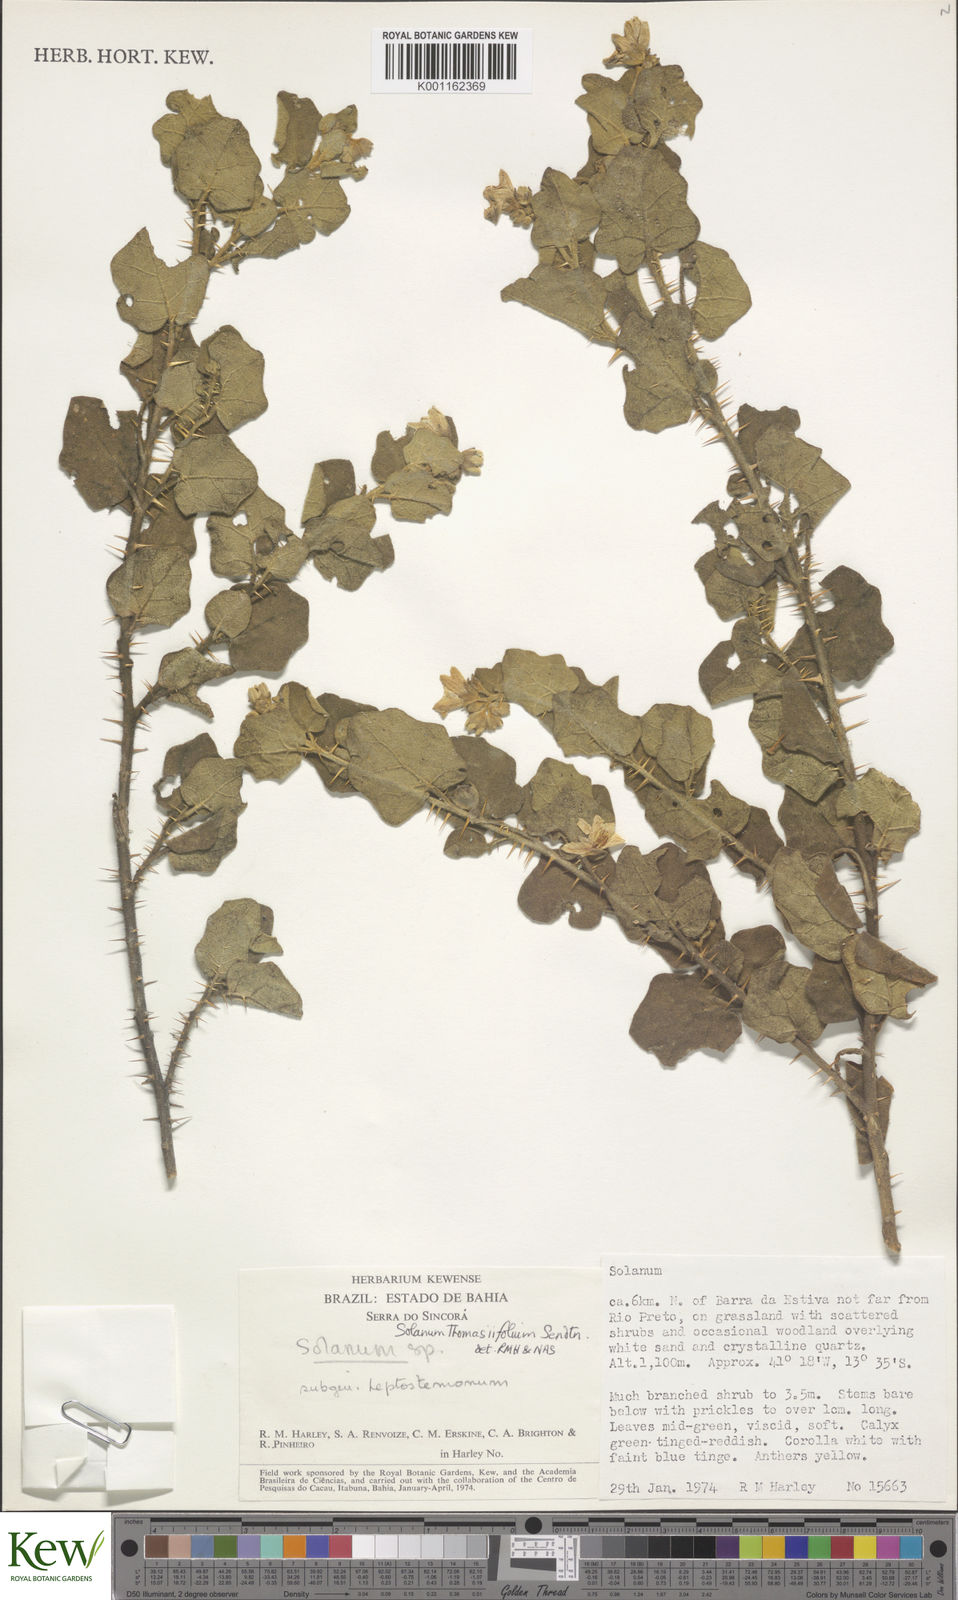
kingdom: Plantae
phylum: Tracheophyta
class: Magnoliopsida
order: Solanales
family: Solanaceae
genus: Solanum
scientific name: Solanum thomasiifolium
